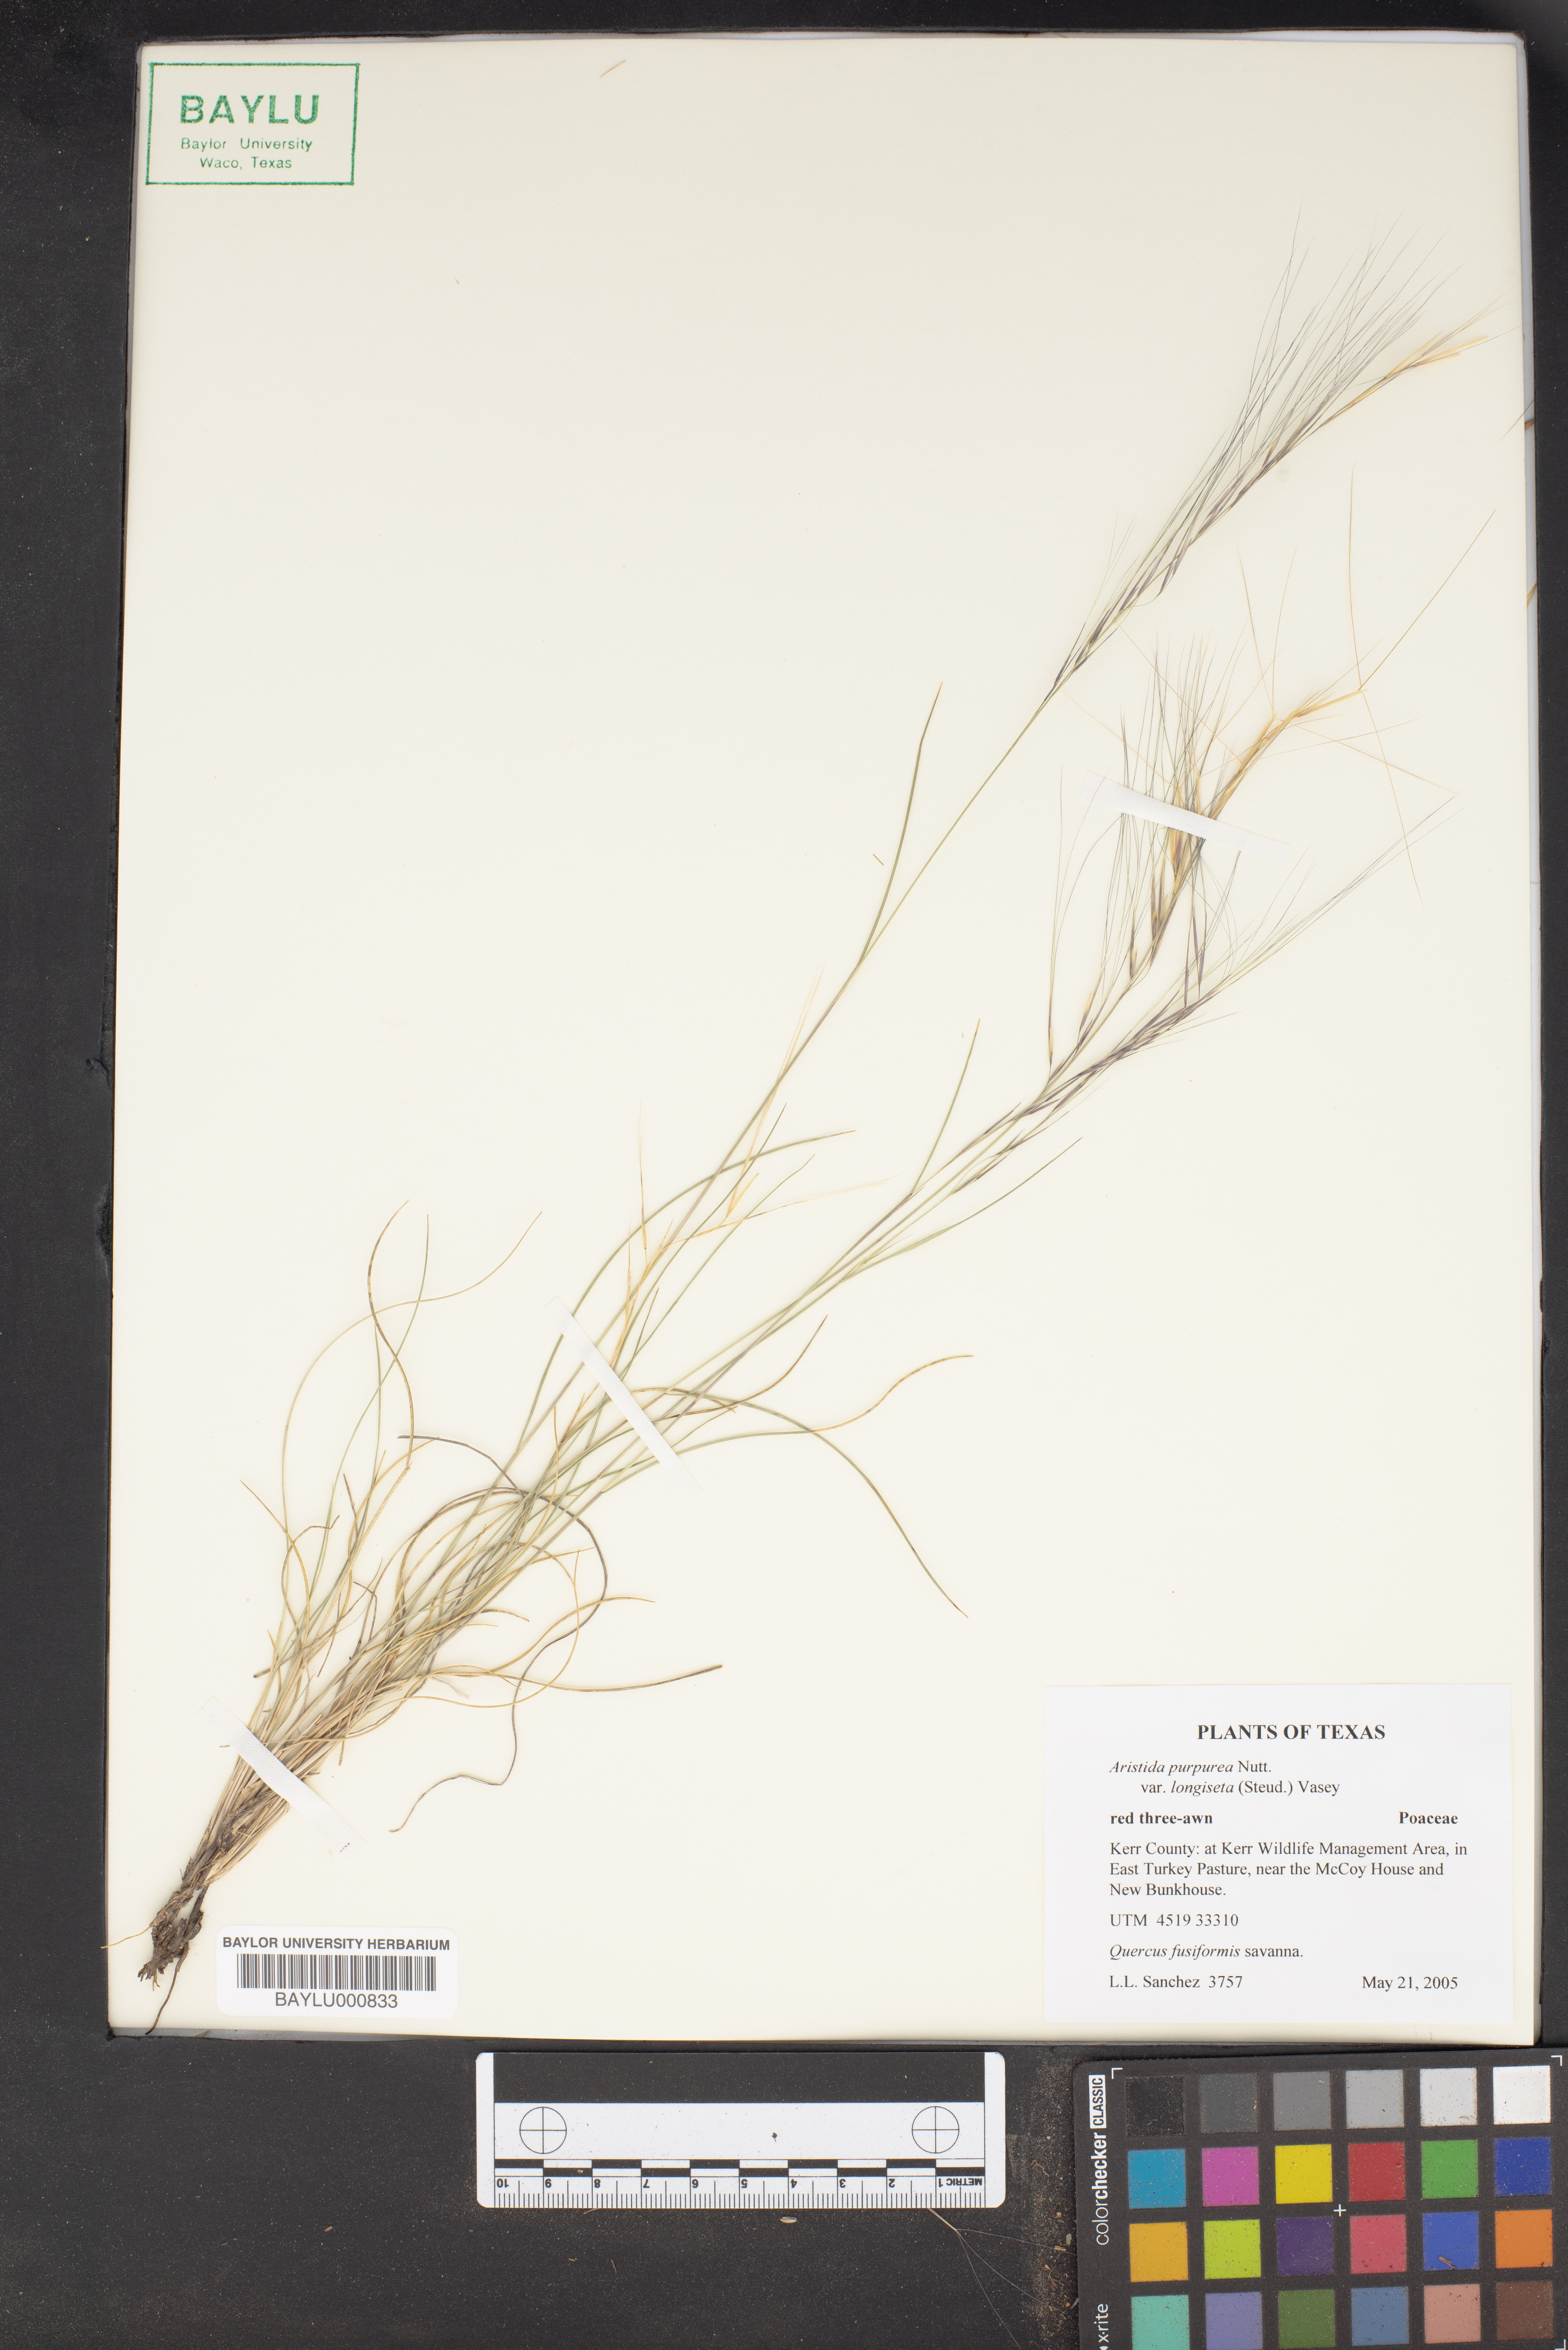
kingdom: Plantae
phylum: Tracheophyta
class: Liliopsida
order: Poales
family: Poaceae
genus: Aristida
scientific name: Aristida longiseta
